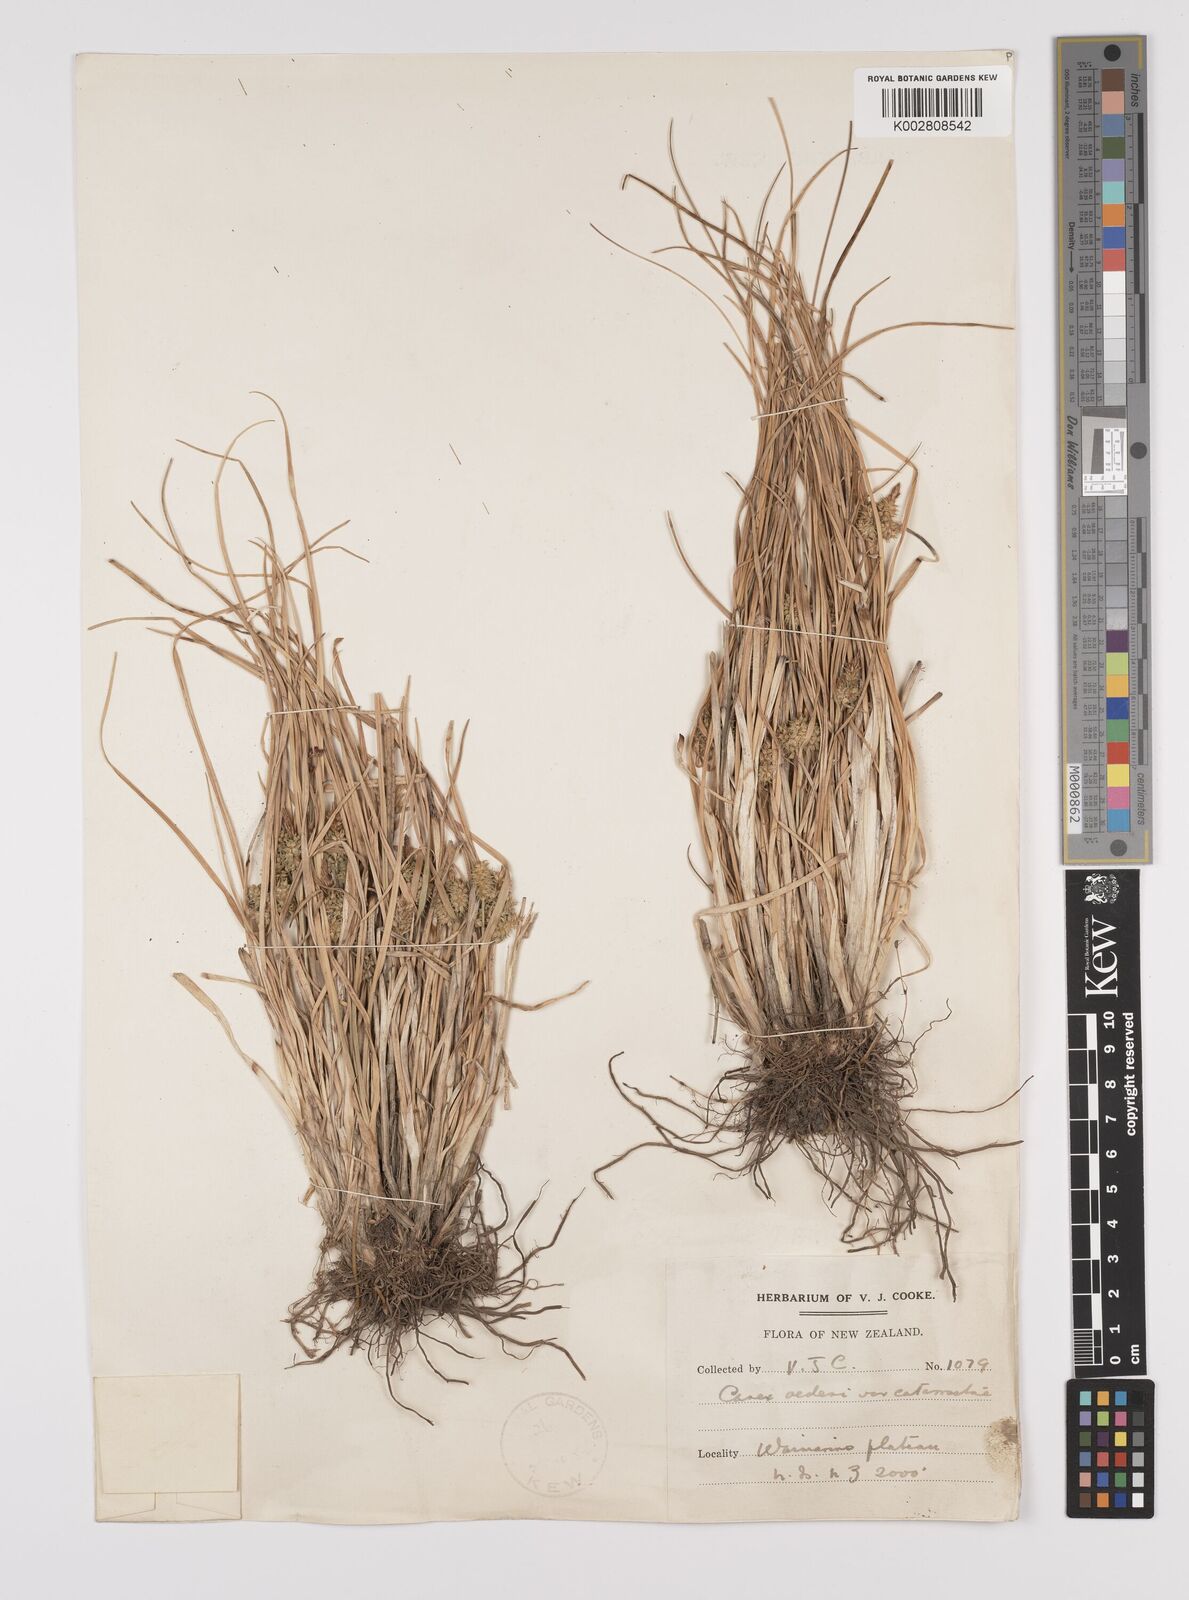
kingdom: Plantae
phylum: Tracheophyta
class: Liliopsida
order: Poales
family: Cyperaceae
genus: Carex
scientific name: Carex demissa
